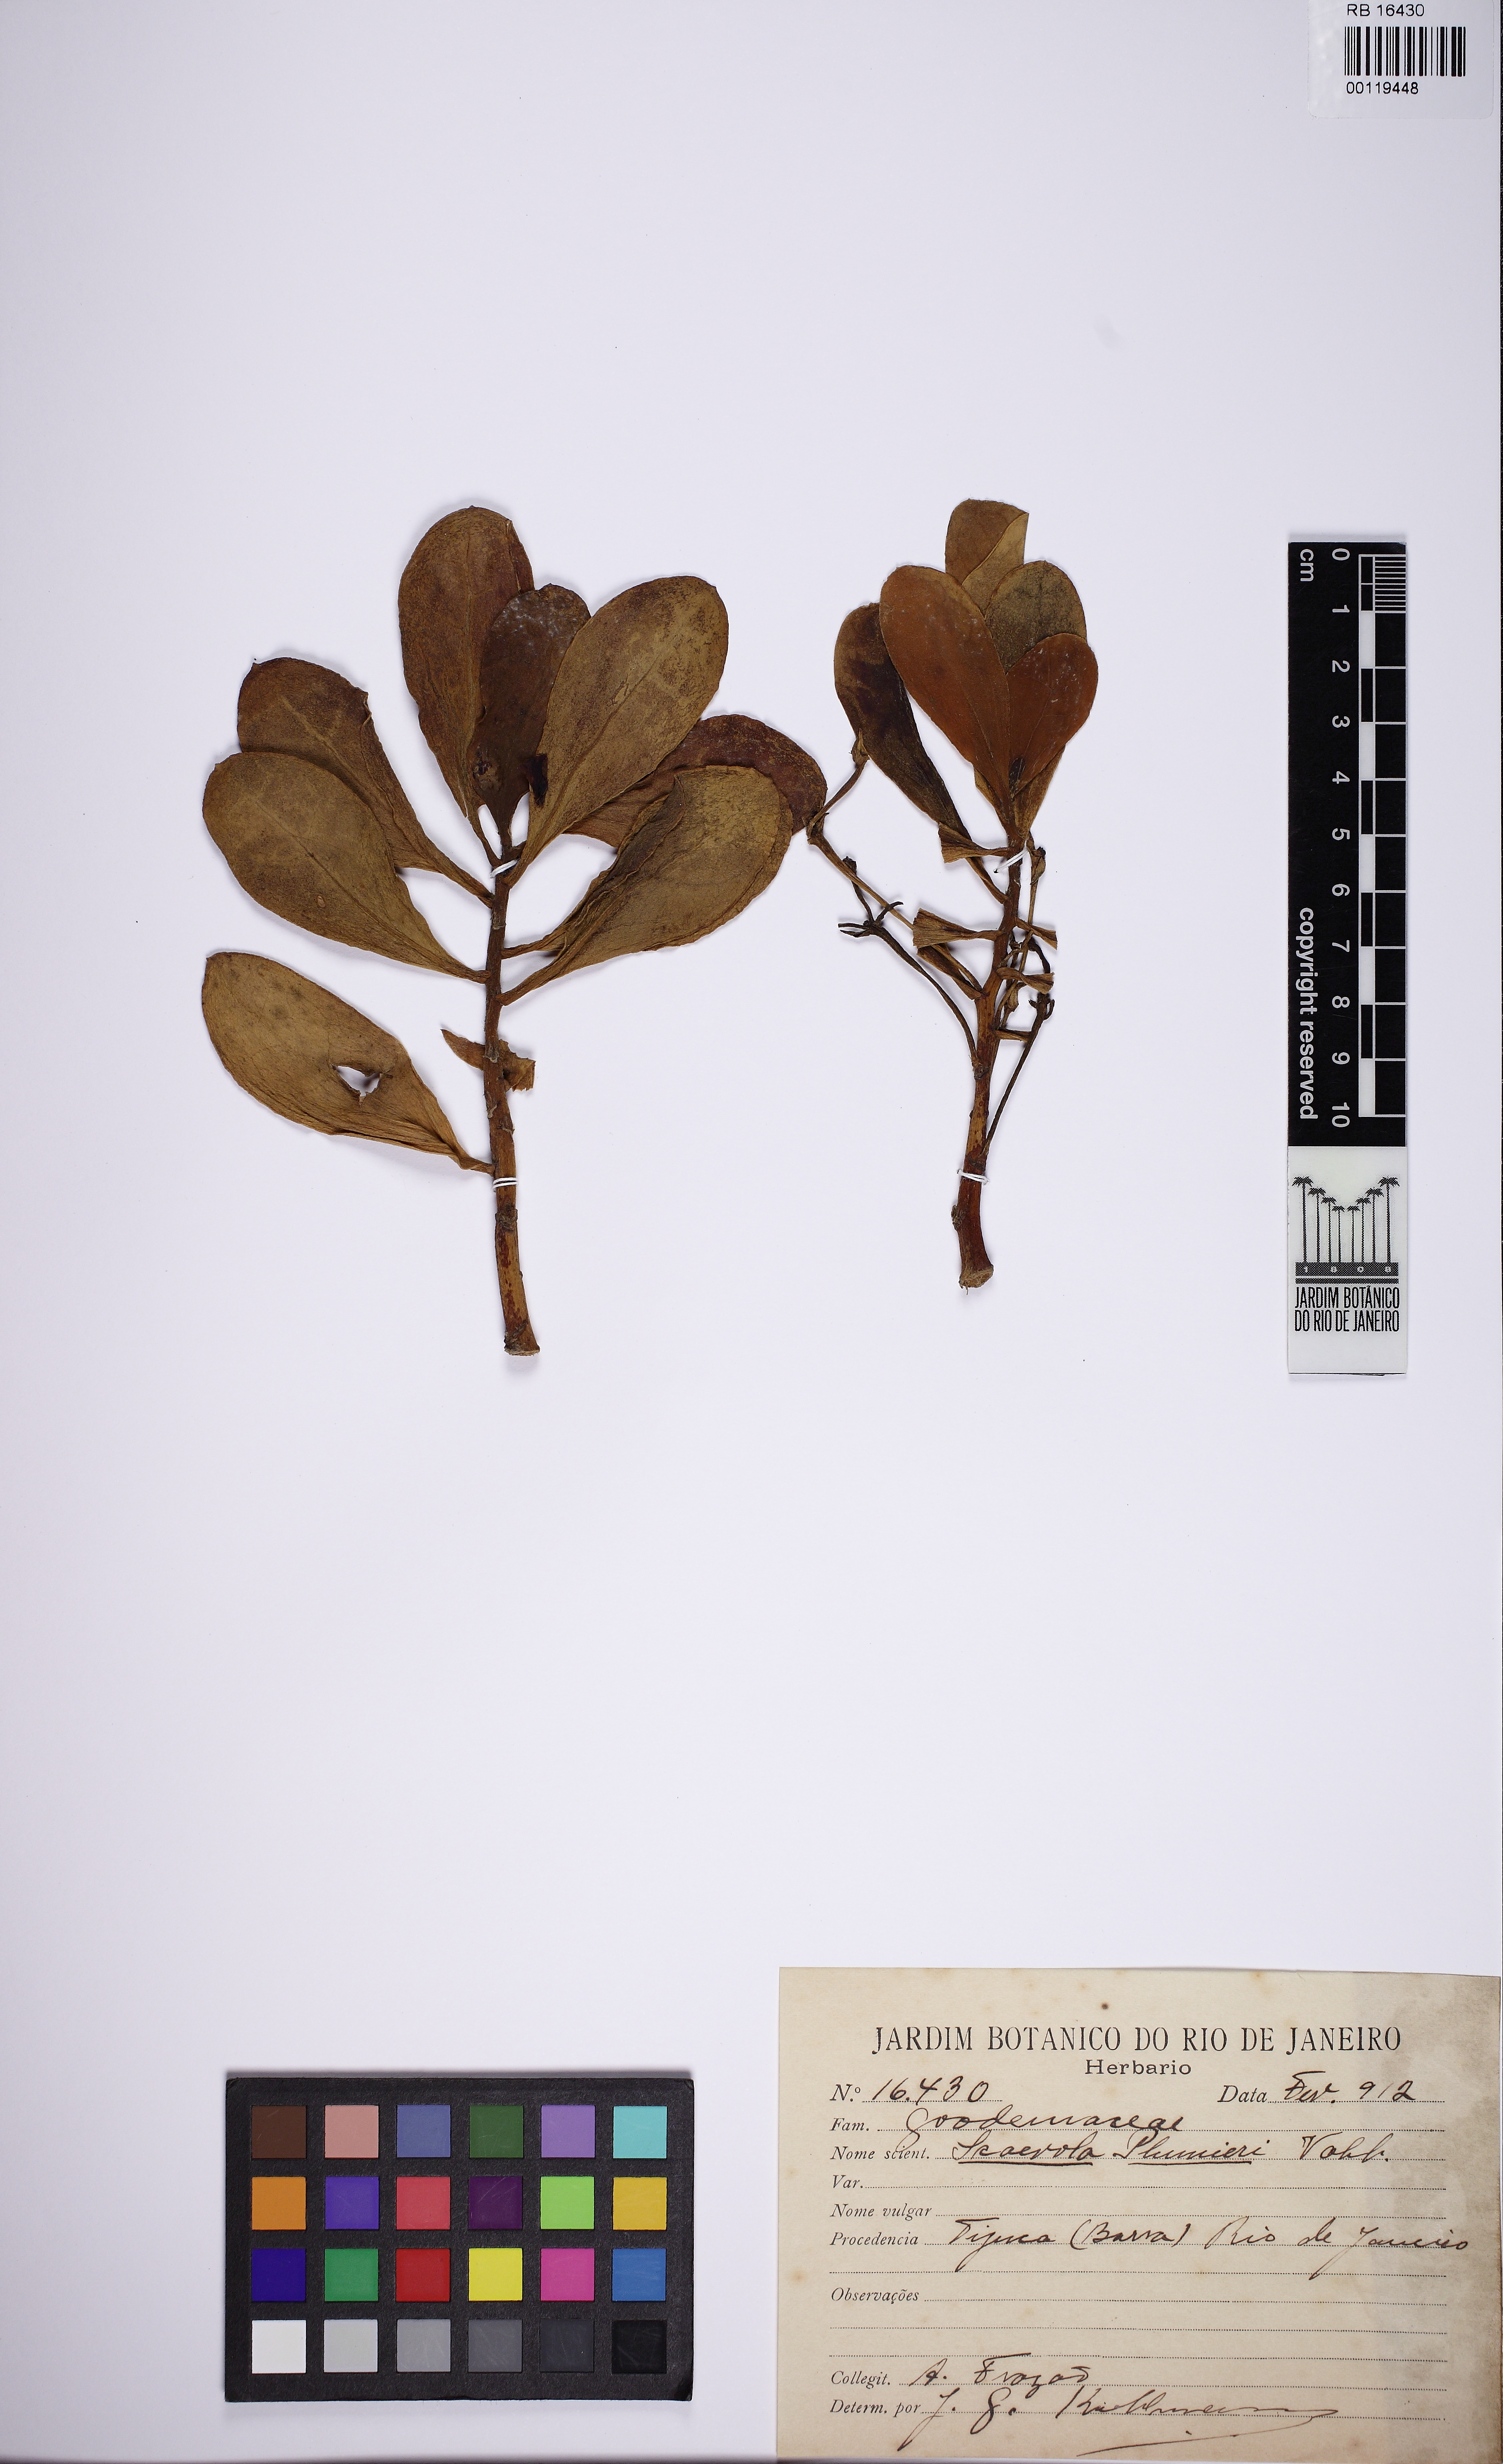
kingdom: Plantae
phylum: Tracheophyta
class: Magnoliopsida
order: Asterales
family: Goodeniaceae
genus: Scaevola
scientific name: Scaevola plumieri
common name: Gull feed
